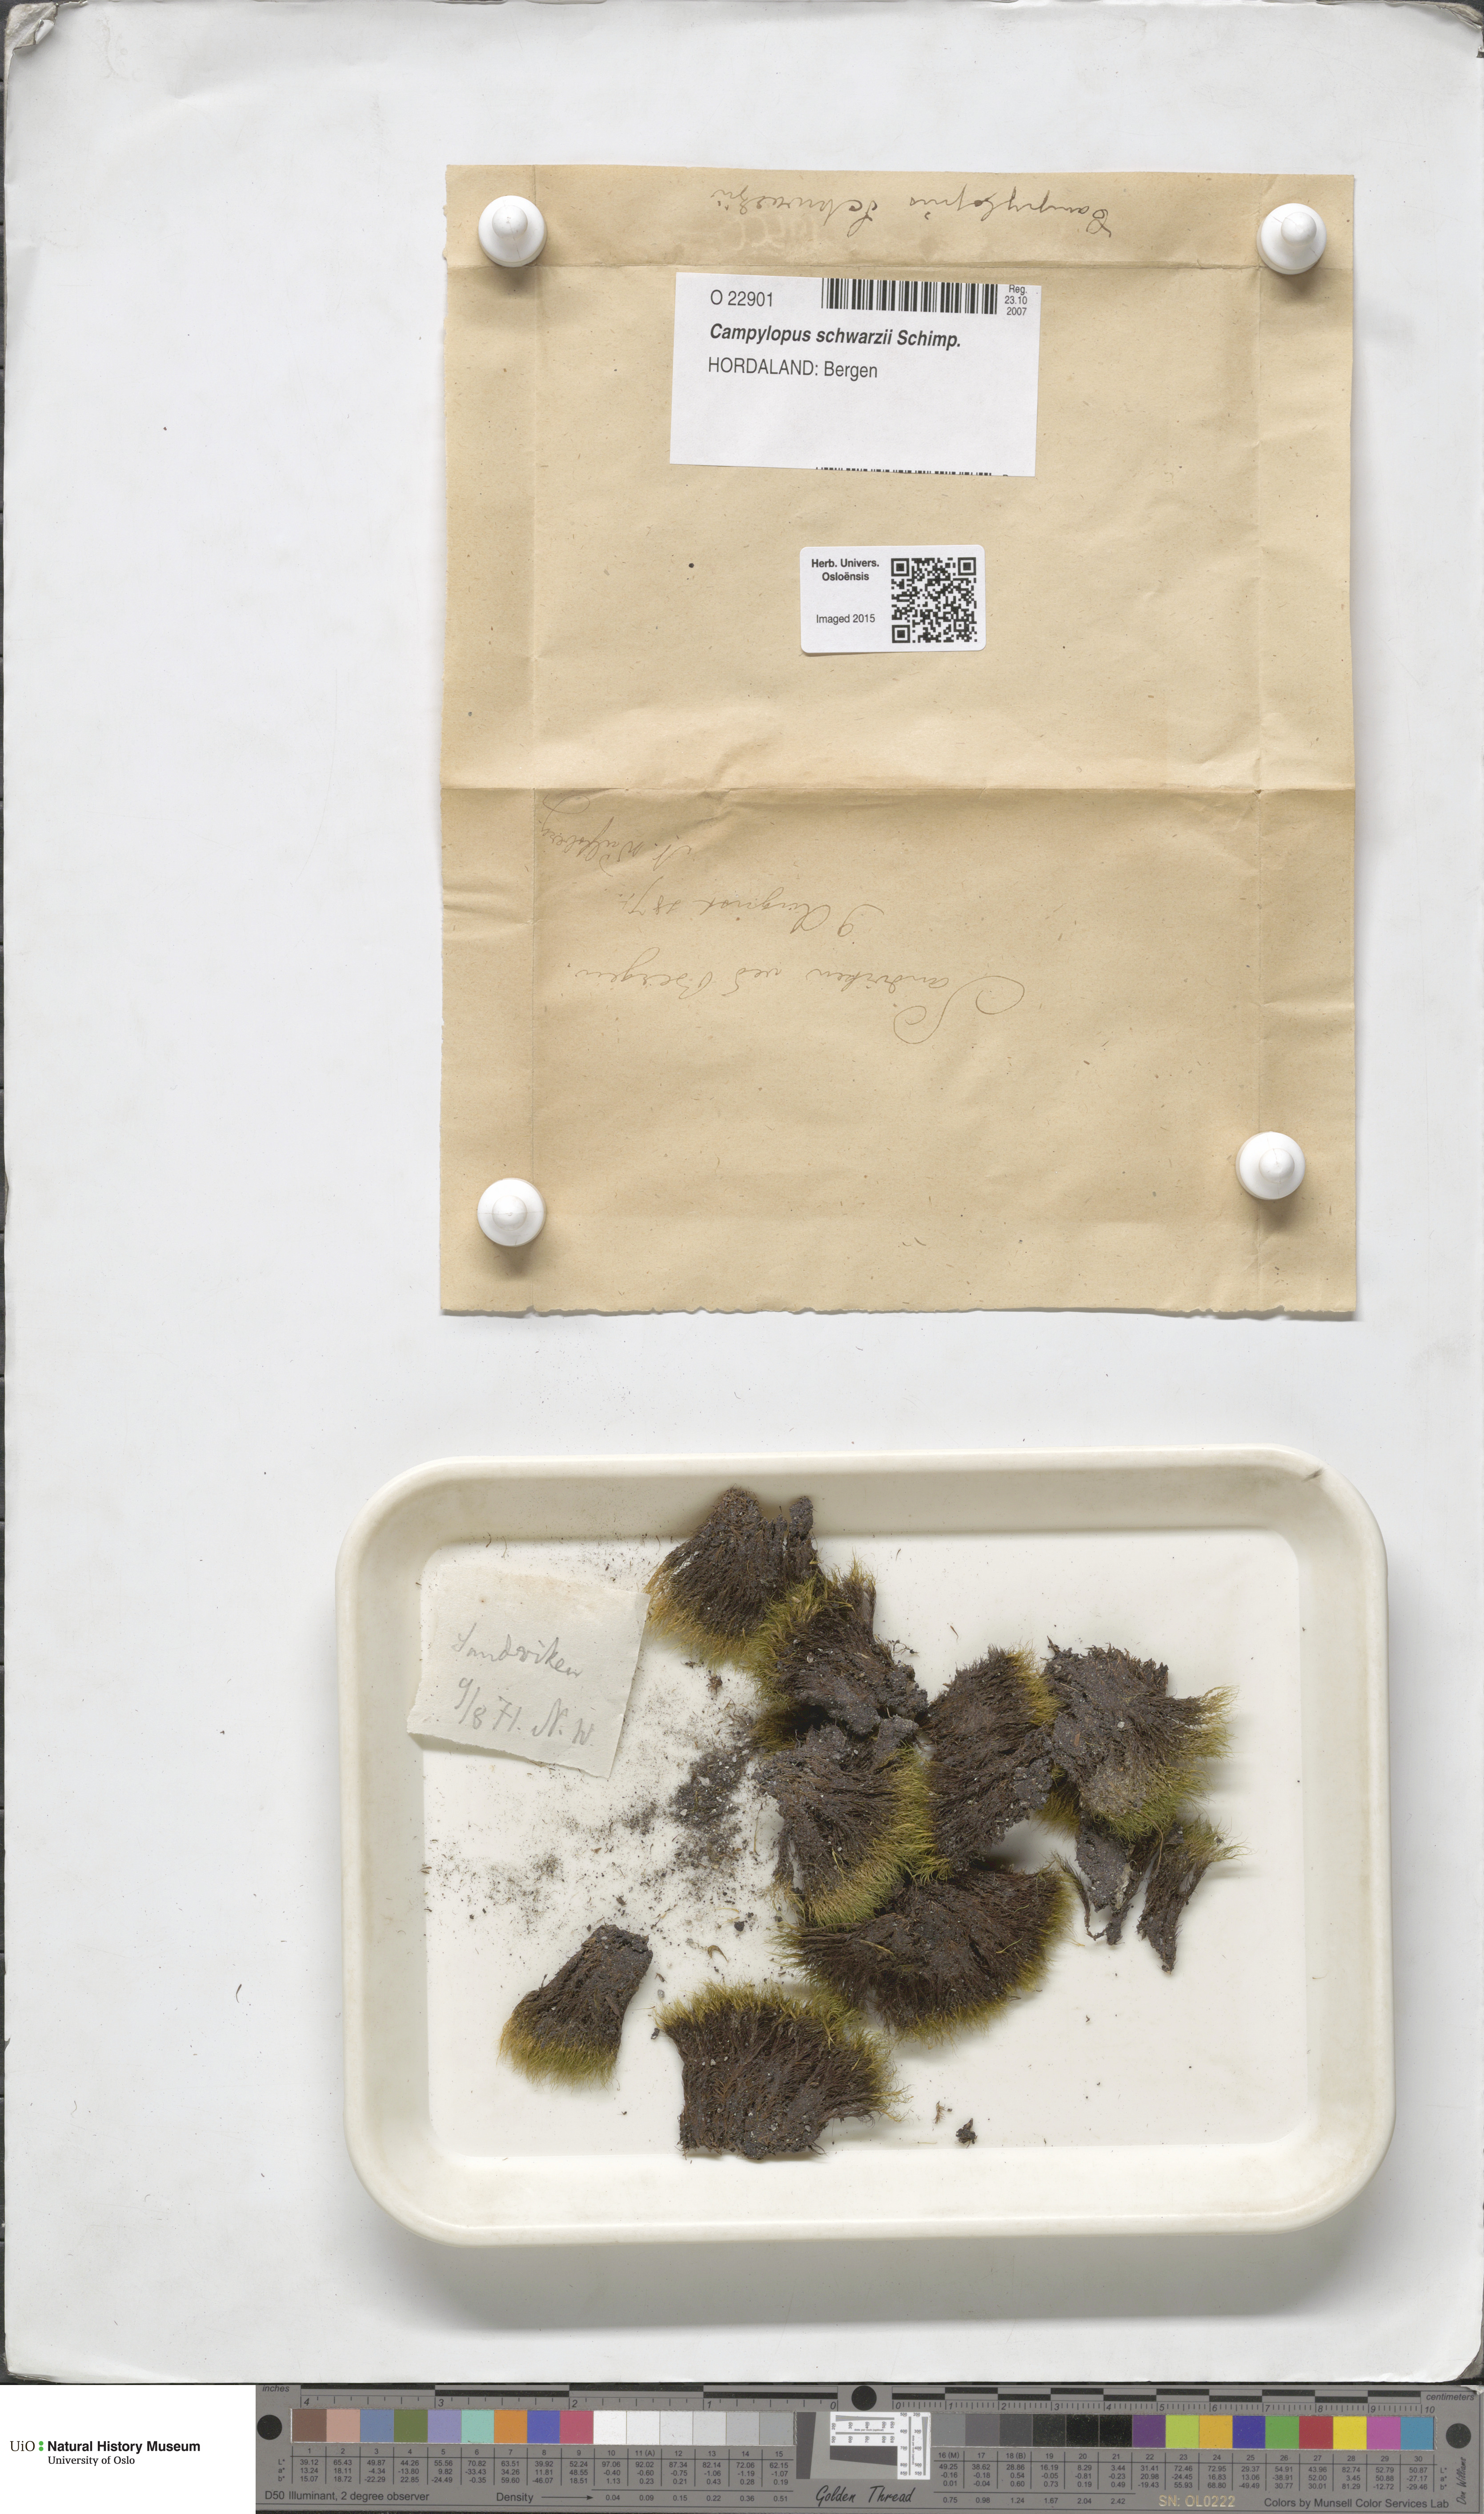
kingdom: Plantae
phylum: Bryophyta
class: Bryopsida
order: Dicranales
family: Leucobryaceae
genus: Campylopus
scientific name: Campylopus gracilis
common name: Schwarz's swan-neck moss
